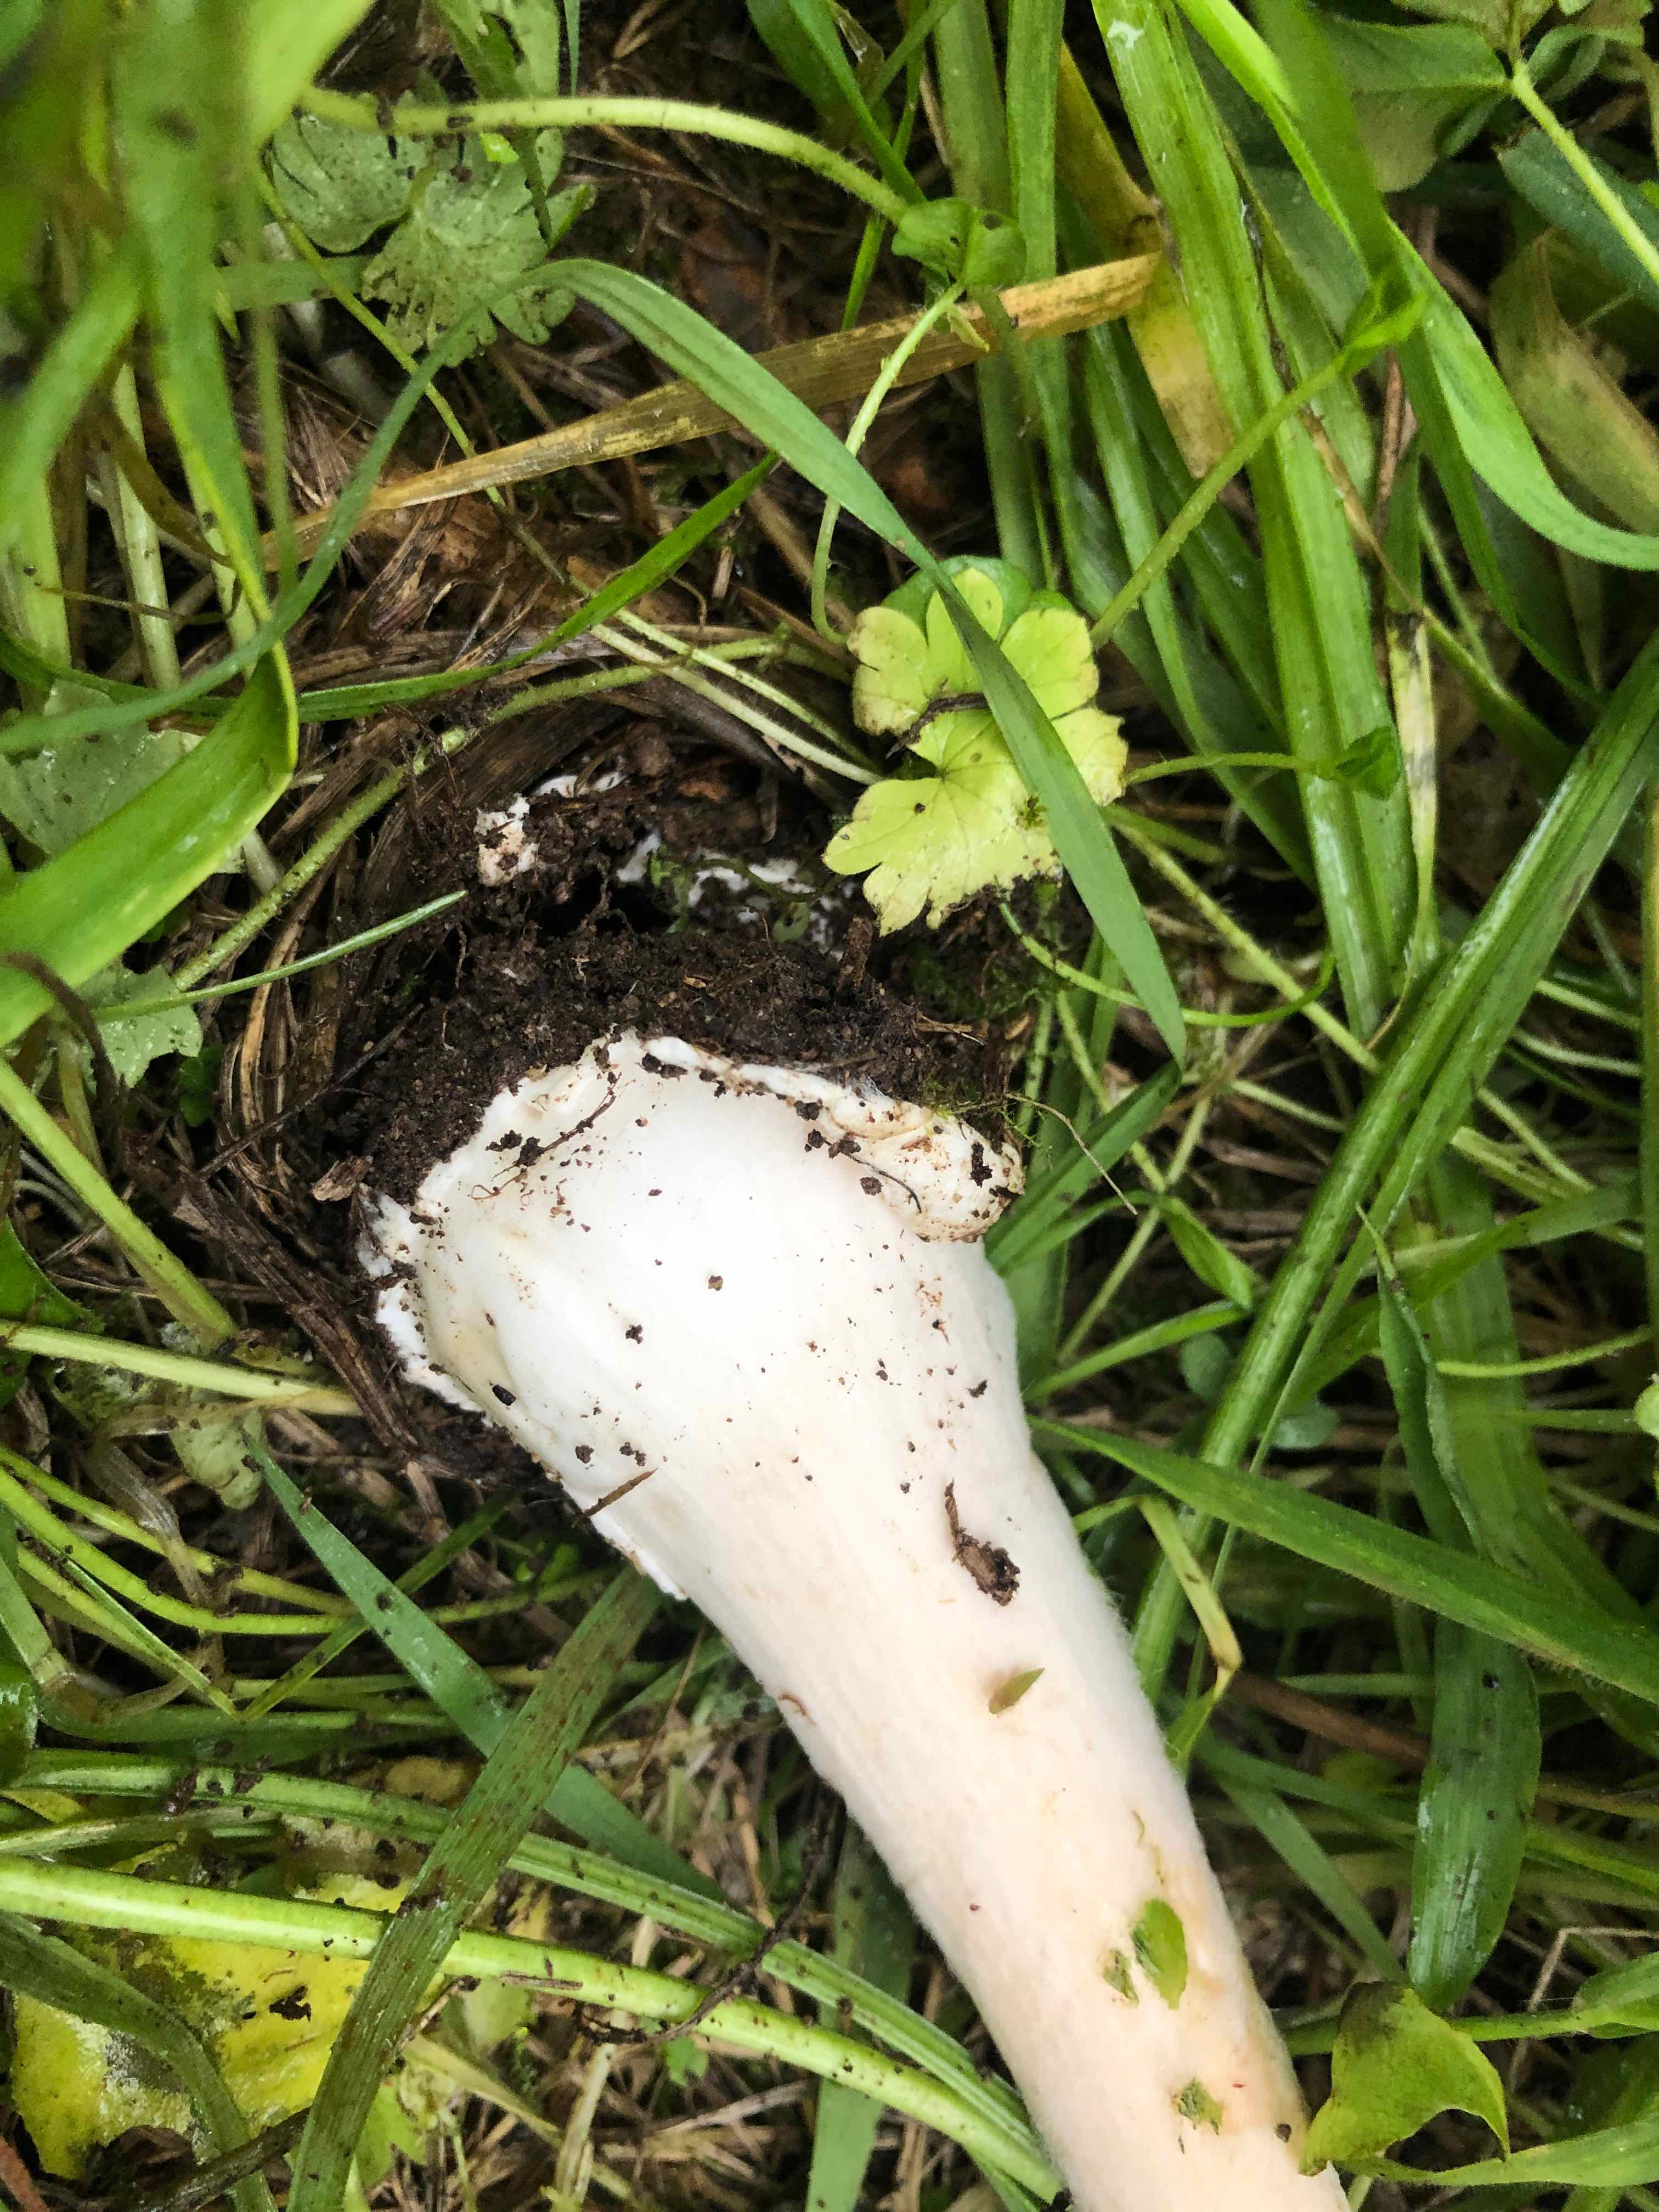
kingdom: Fungi
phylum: Basidiomycota
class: Agaricomycetes
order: Agaricales
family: Pluteaceae
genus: Volvopluteus
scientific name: Volvopluteus gloiocephalus
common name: høj posesvamp
